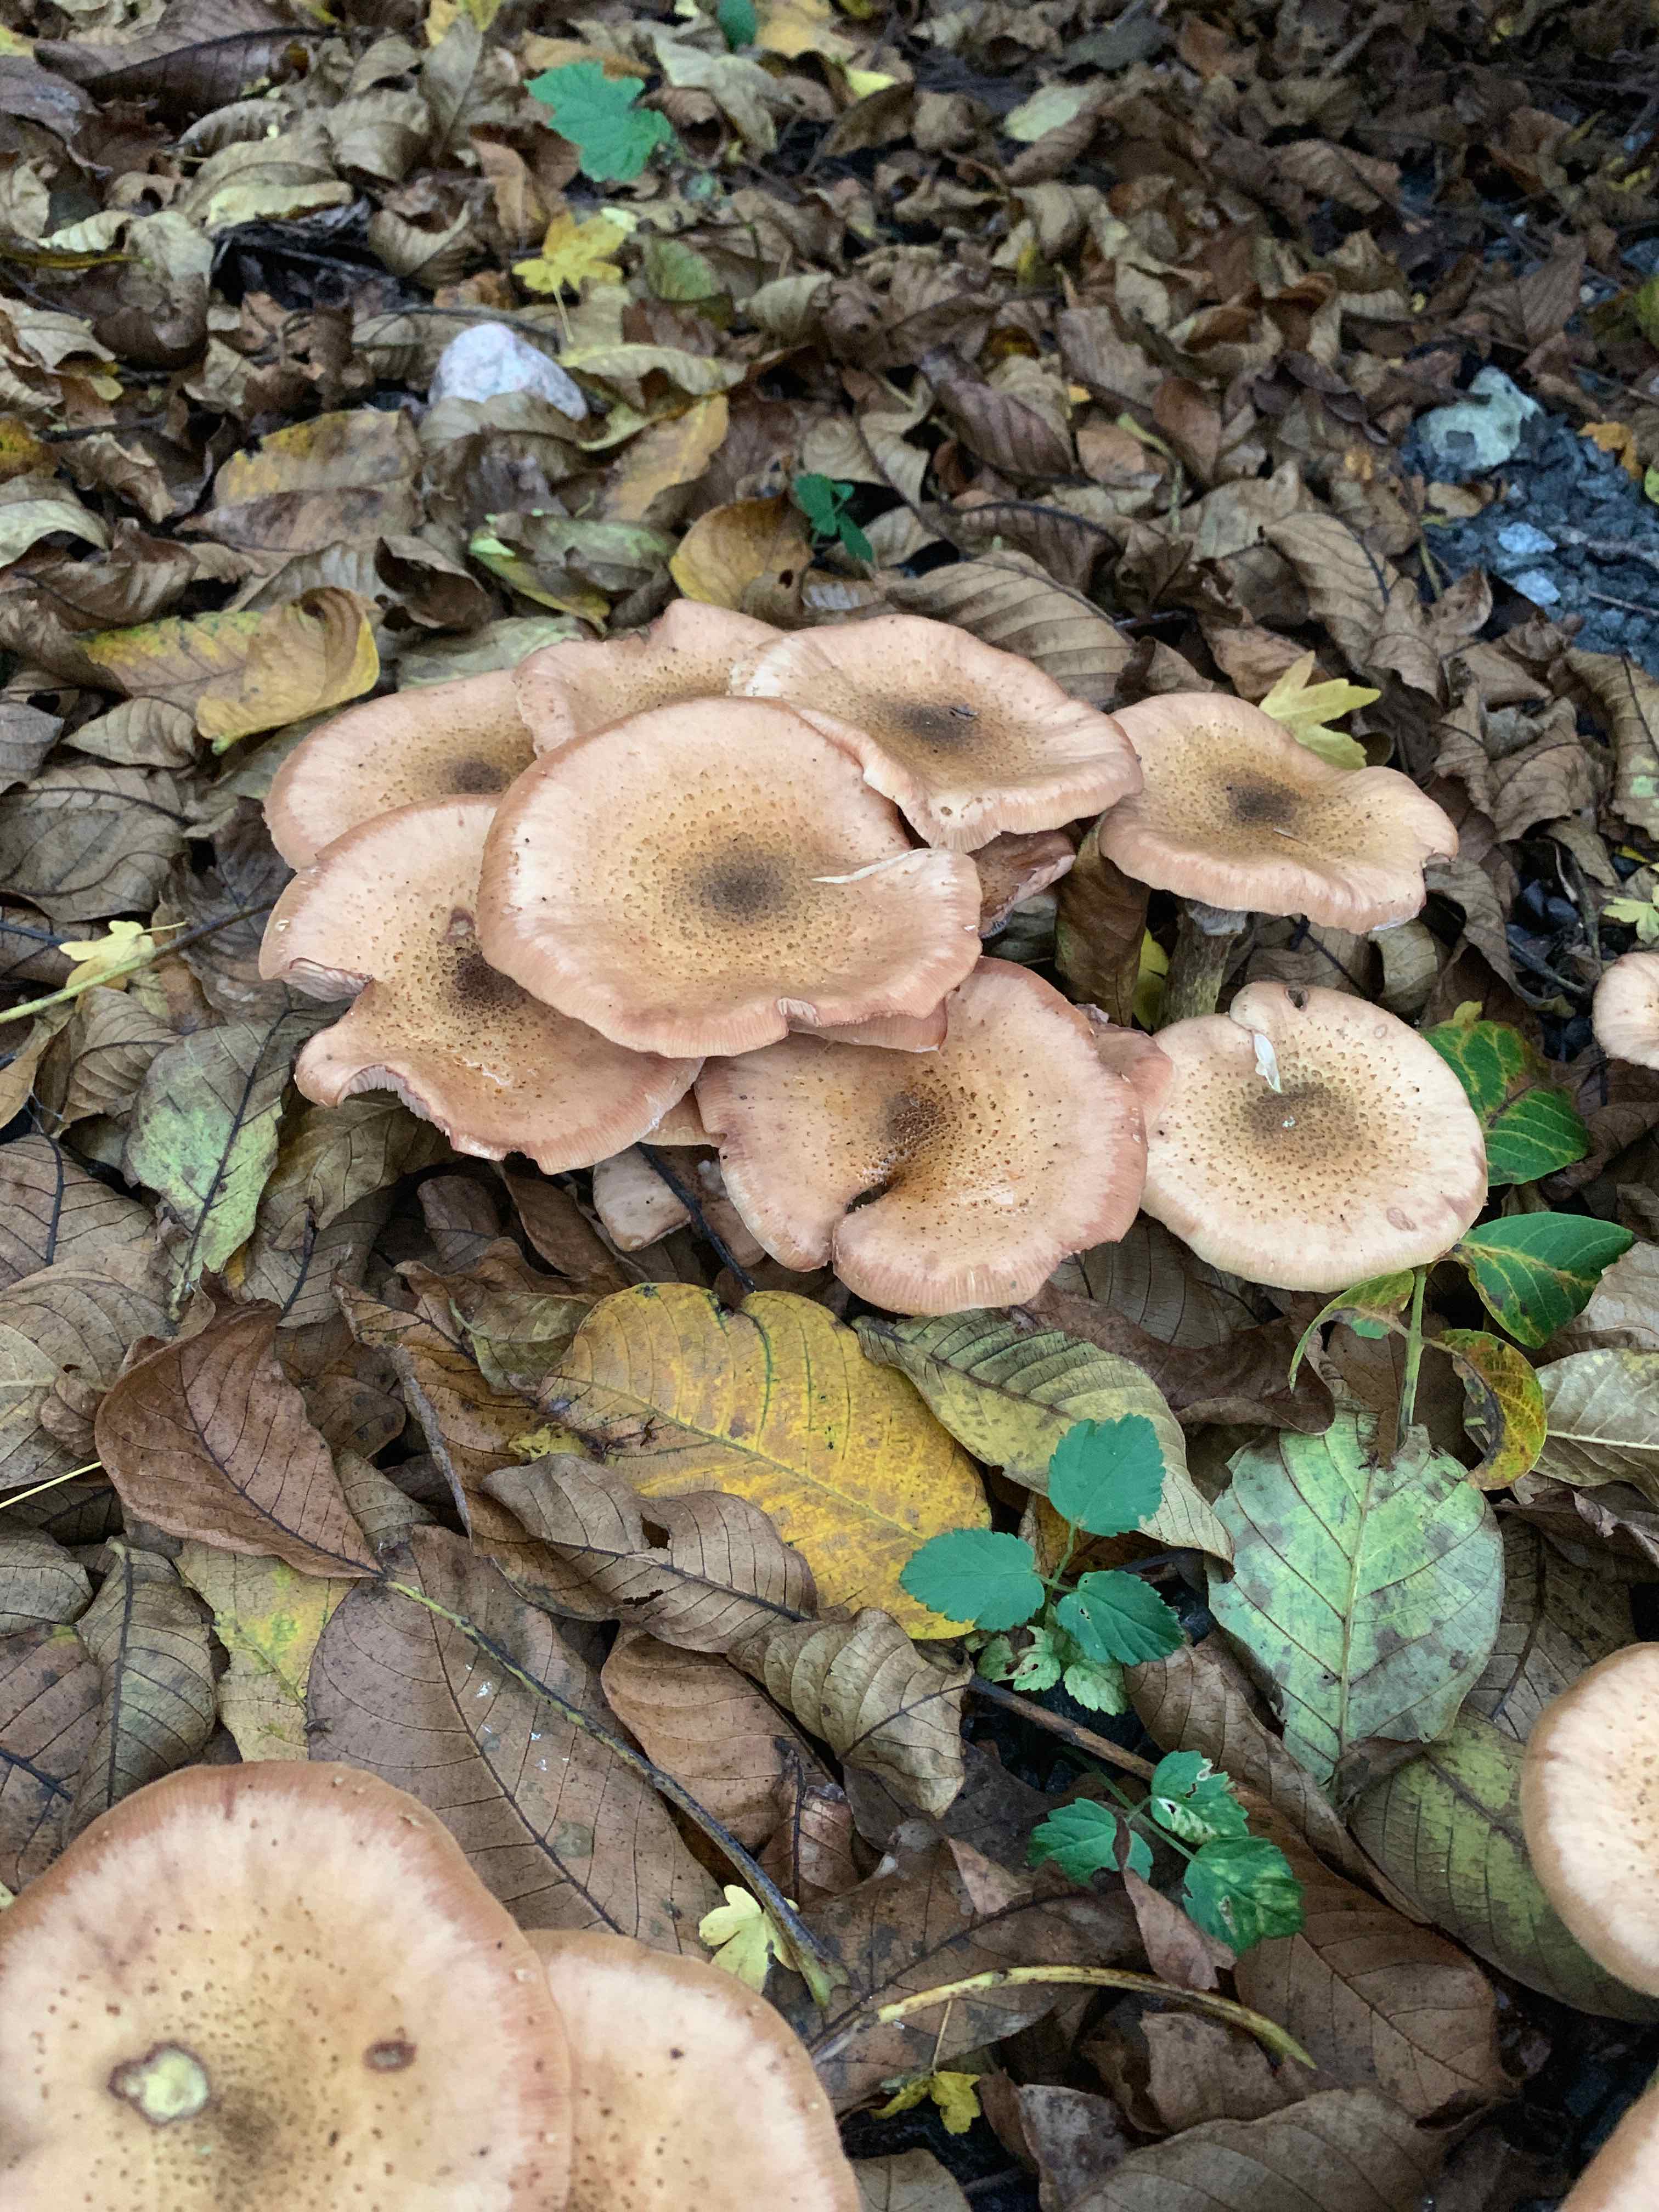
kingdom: Fungi
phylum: Basidiomycota
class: Agaricomycetes
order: Agaricales
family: Physalacriaceae
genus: Armillaria
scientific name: Armillaria lutea
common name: køllestokket honningsvamp
